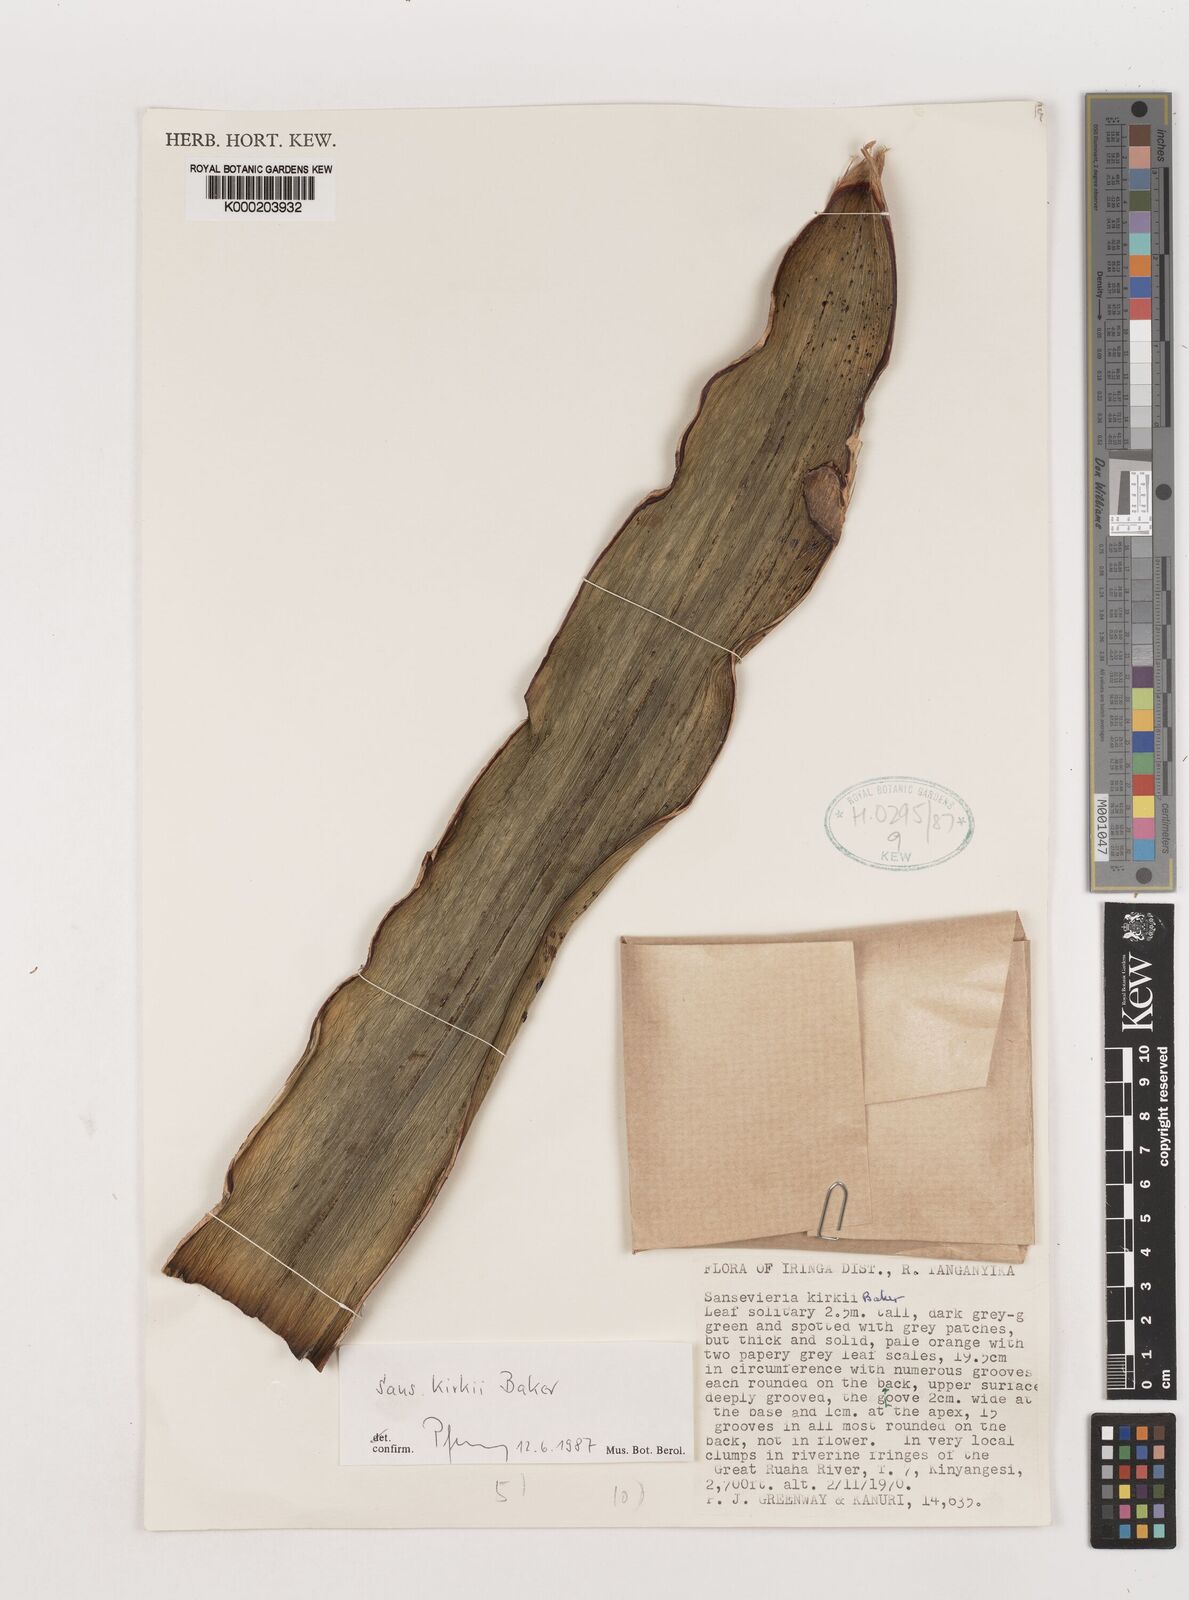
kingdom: Plantae
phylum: Tracheophyta
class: Liliopsida
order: Asparagales
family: Asparagaceae
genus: Dracaena
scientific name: Dracaena pethera
